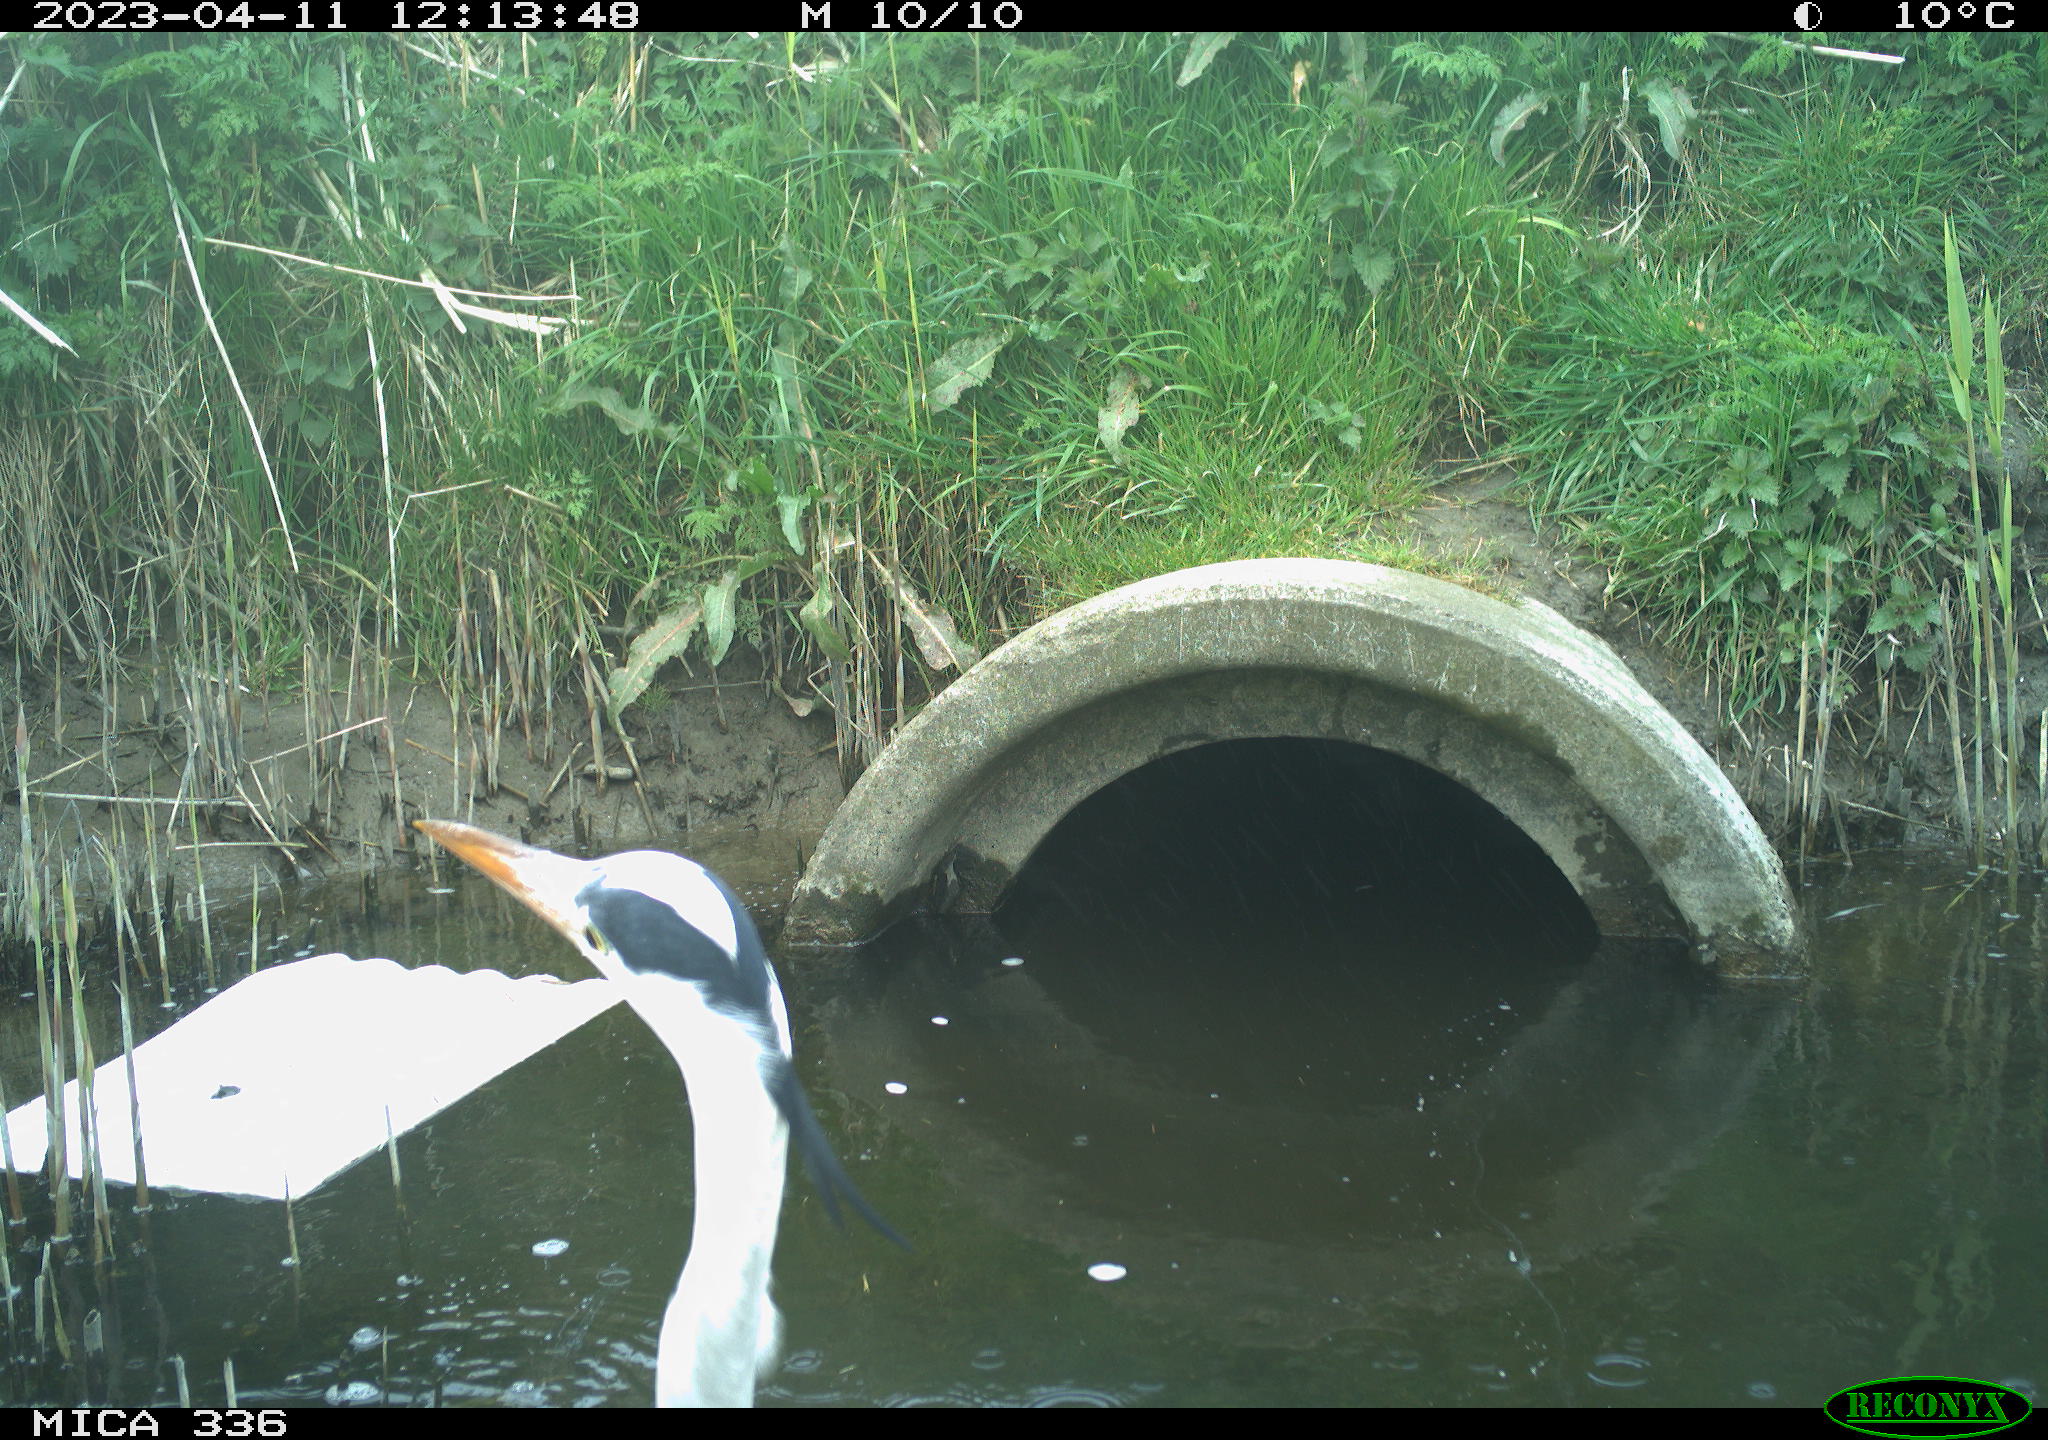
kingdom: Animalia
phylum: Chordata
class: Aves
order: Pelecaniformes
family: Ardeidae
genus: Ardea
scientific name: Ardea cinerea
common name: Grey heron
